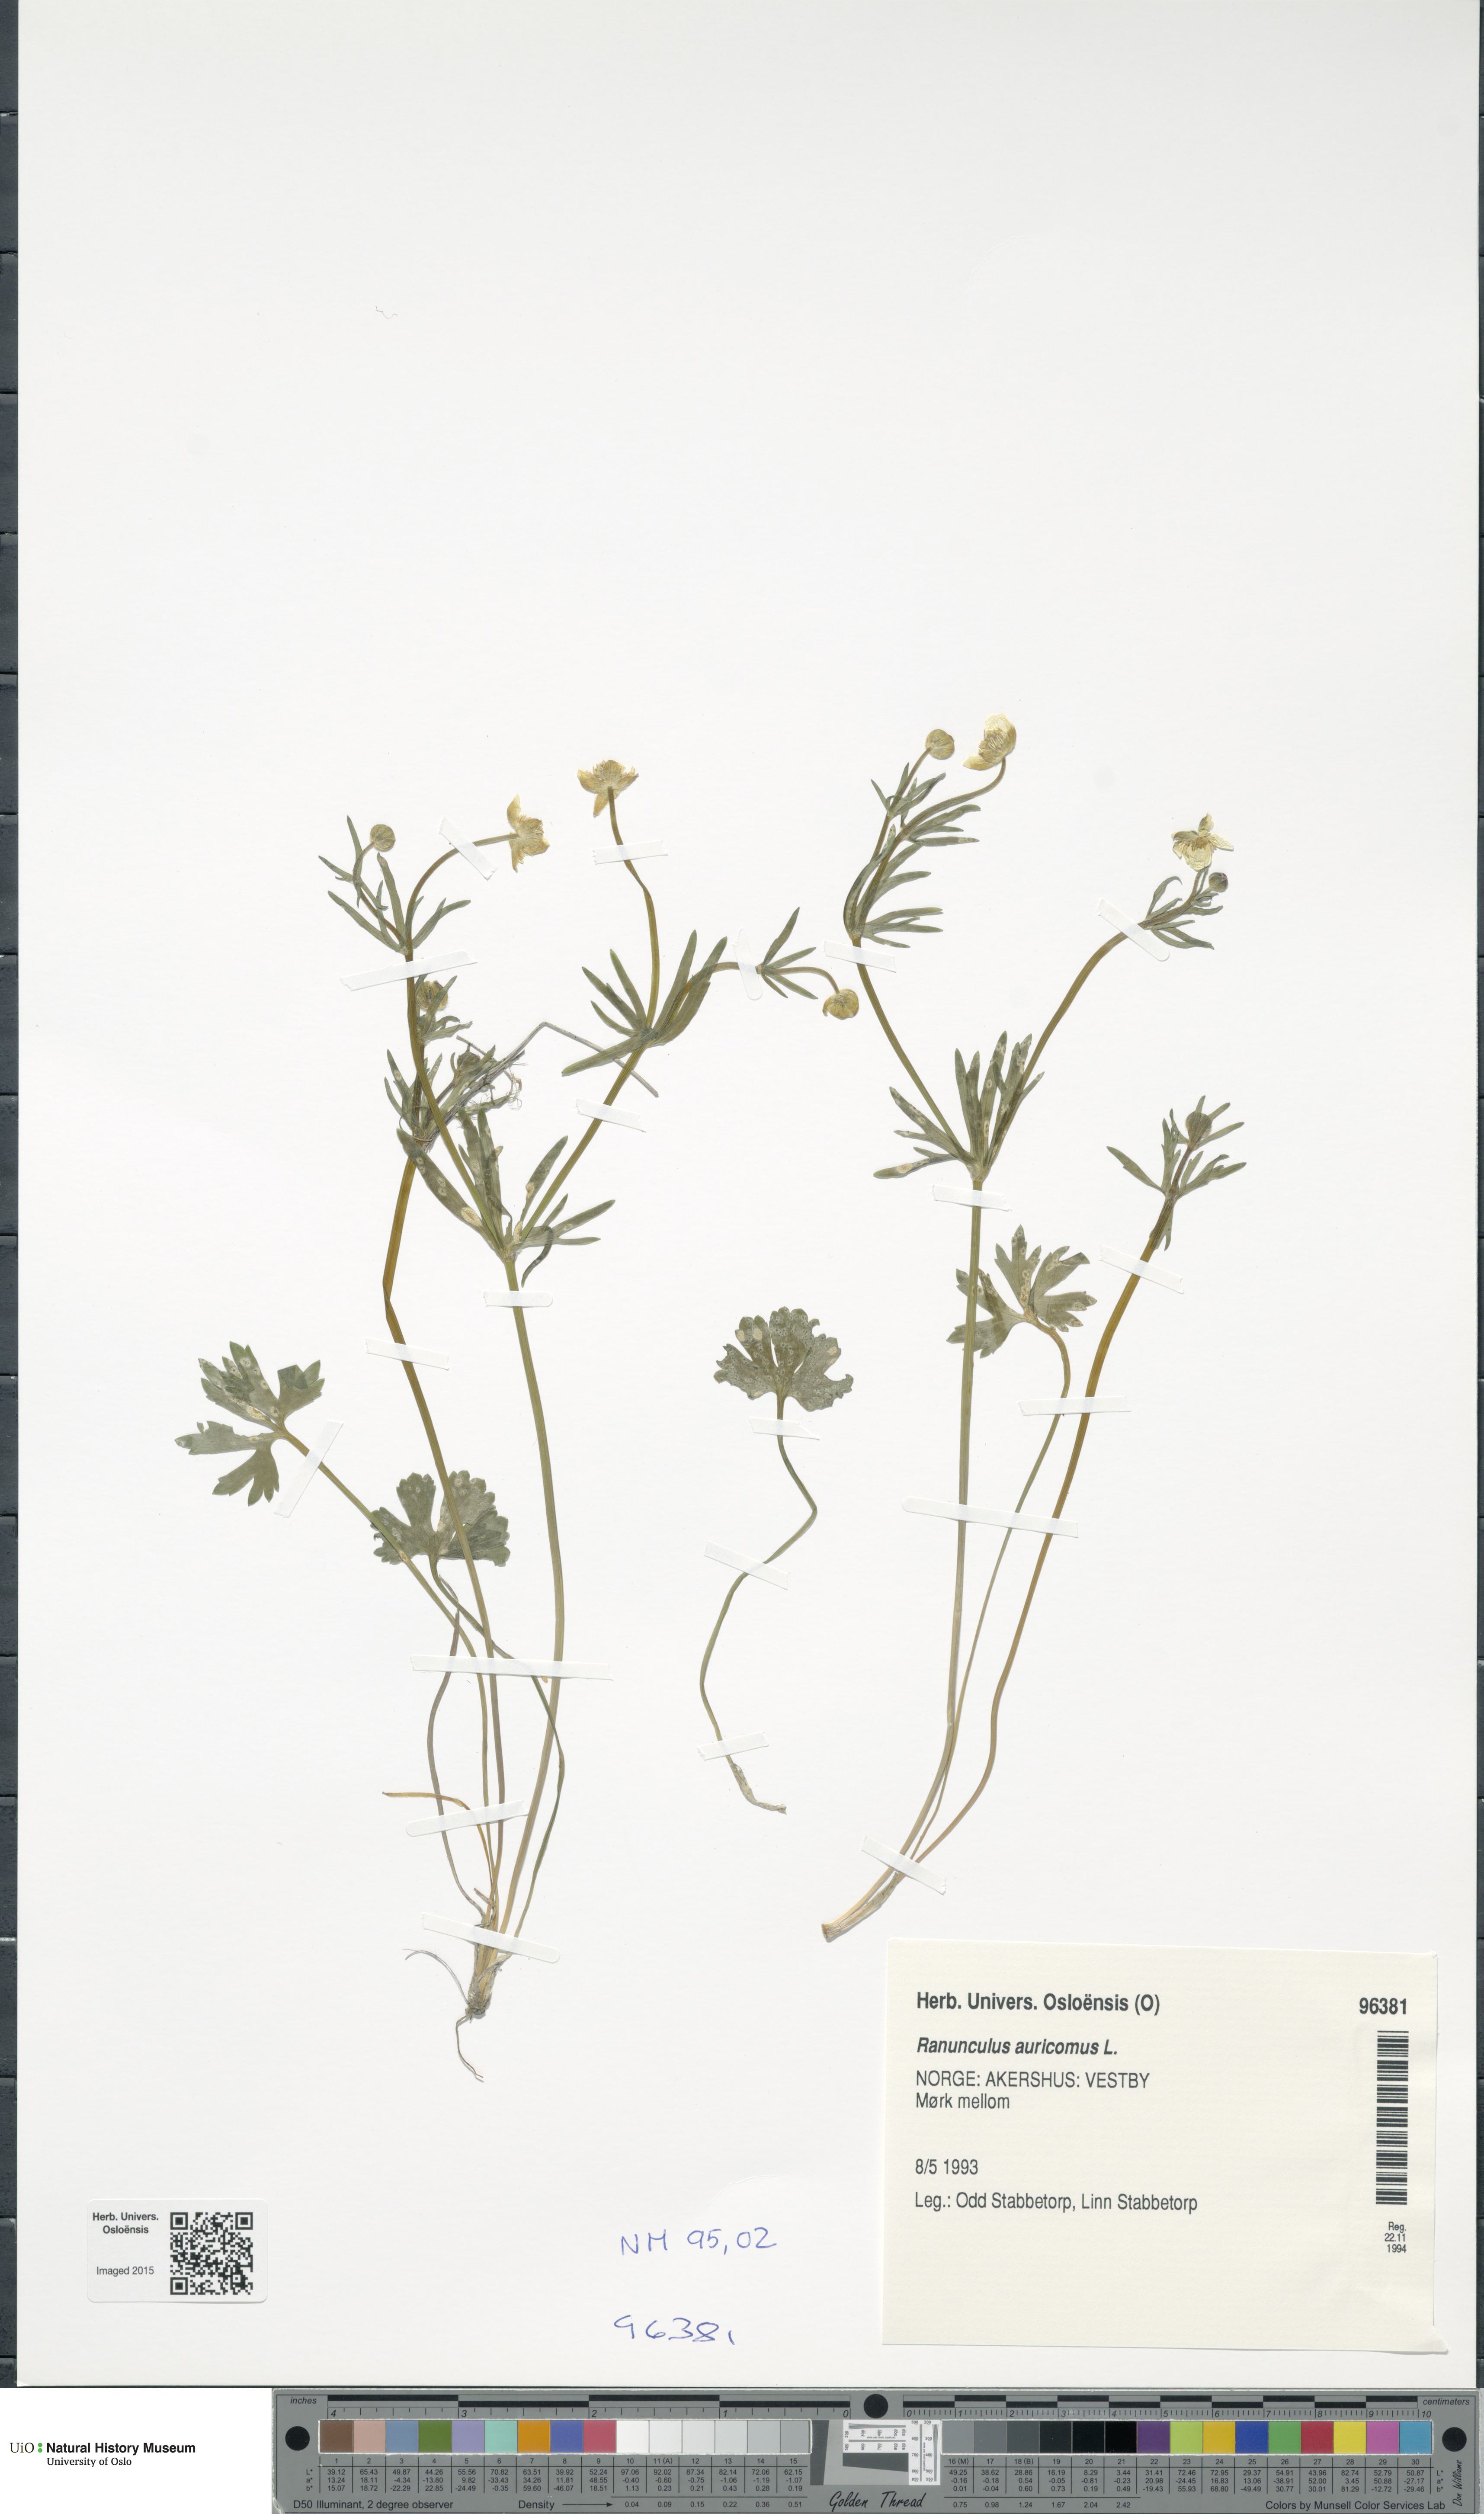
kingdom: Plantae
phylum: Tracheophyta
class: Magnoliopsida
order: Ranunculales
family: Ranunculaceae
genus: Ranunculus
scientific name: Ranunculus auricomus
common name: Goldilocks buttercup
